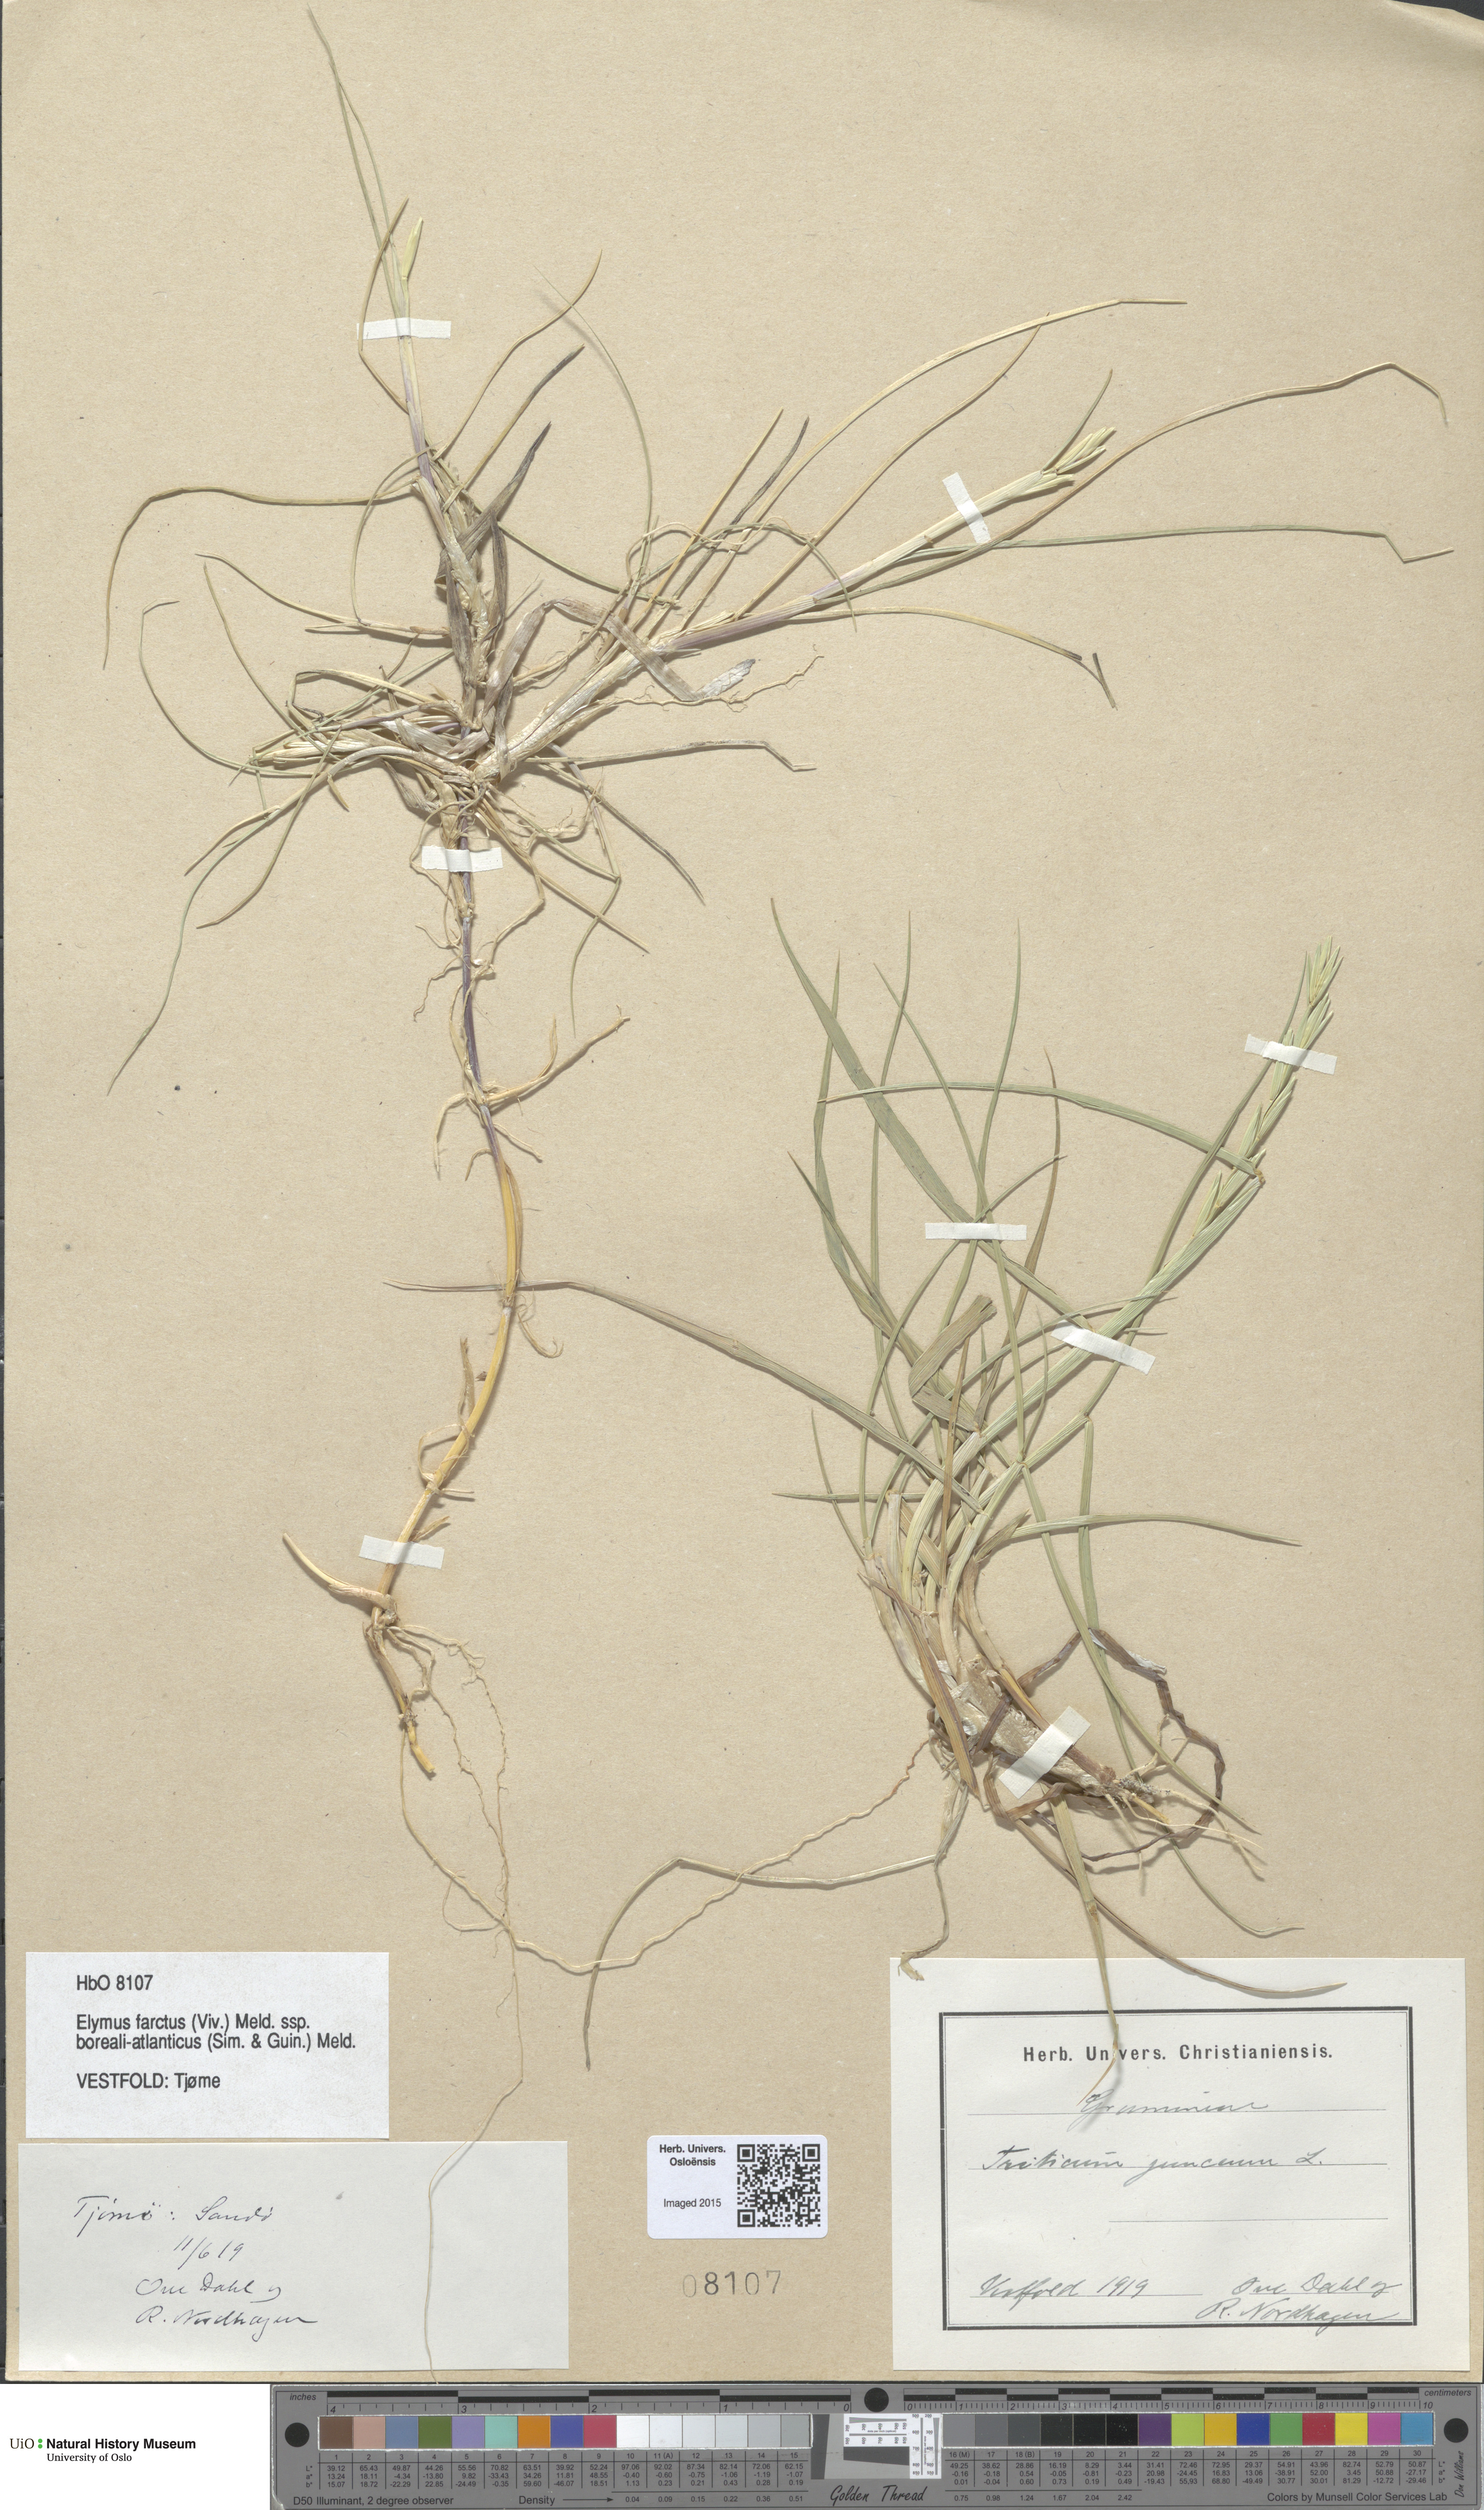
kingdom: Plantae
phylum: Tracheophyta
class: Liliopsida
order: Poales
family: Poaceae
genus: Thinopyrum
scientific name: Thinopyrum junceiforme
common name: Sea couch
